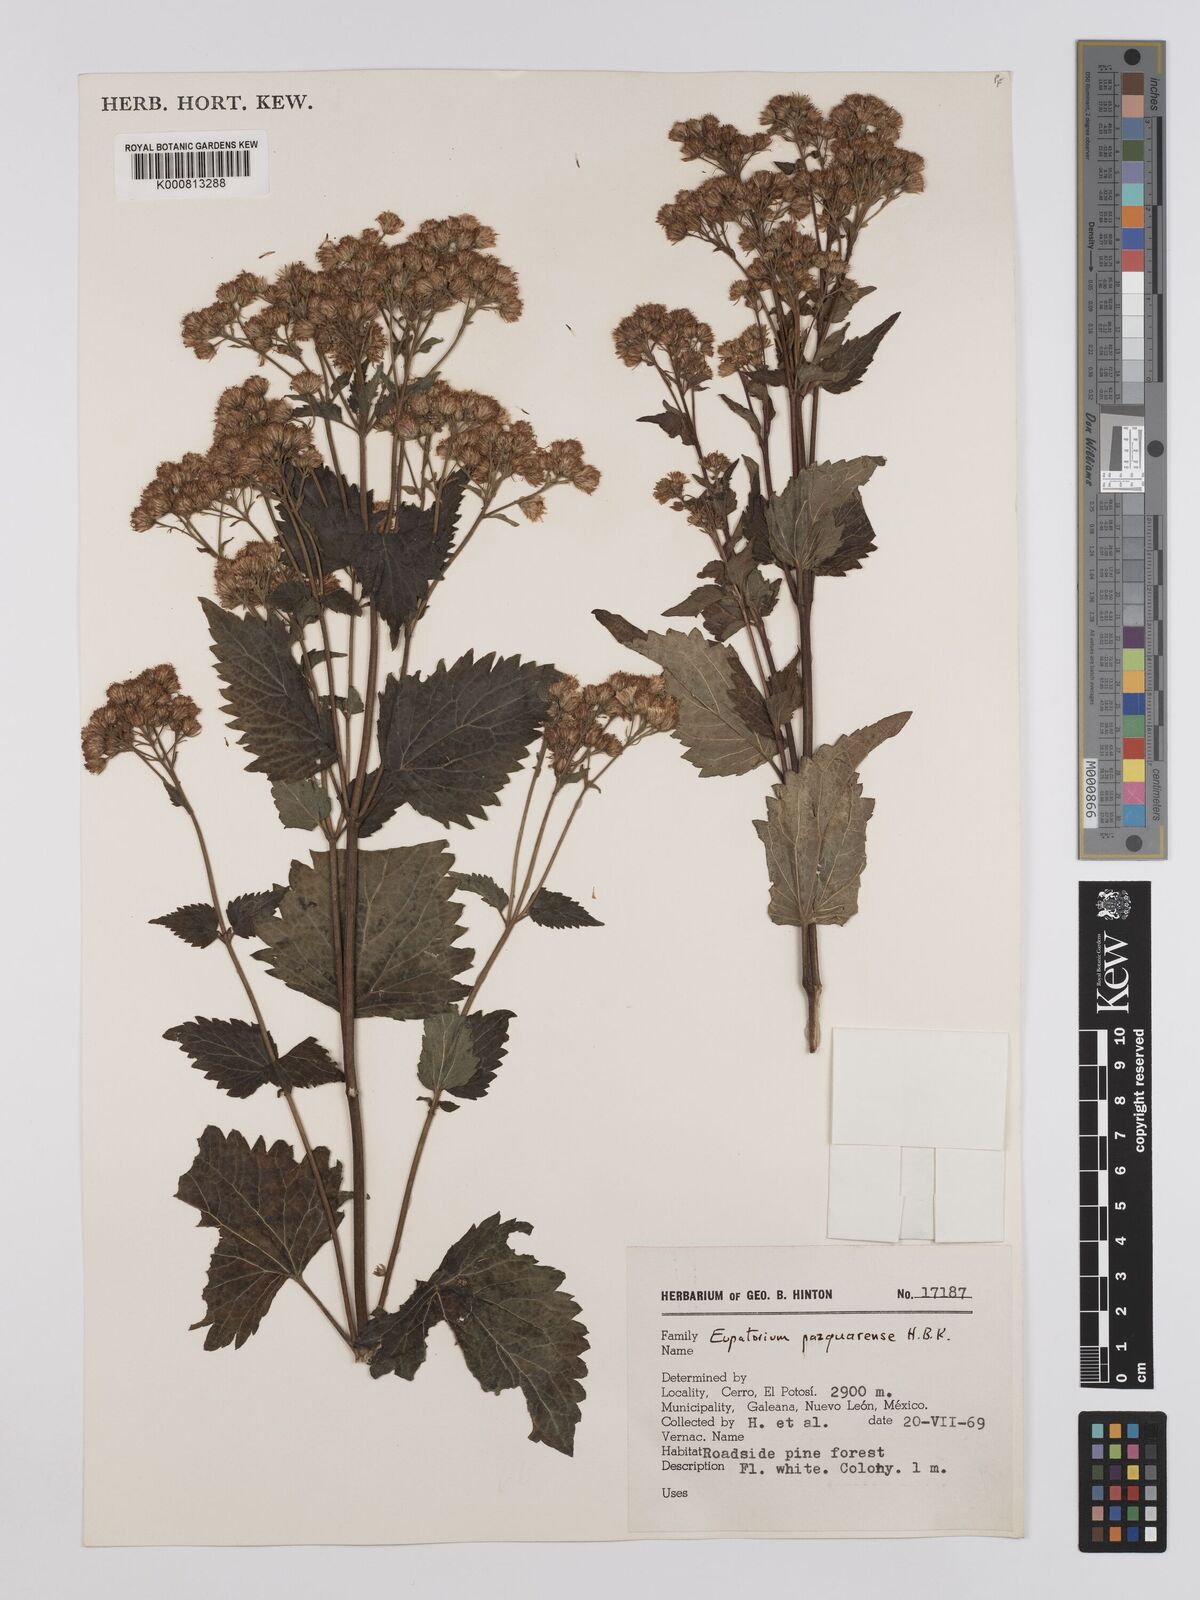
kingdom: Plantae
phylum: Tracheophyta
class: Magnoliopsida
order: Asterales
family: Asteraceae
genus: Ageratina
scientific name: Ageratina pazcuarensis
